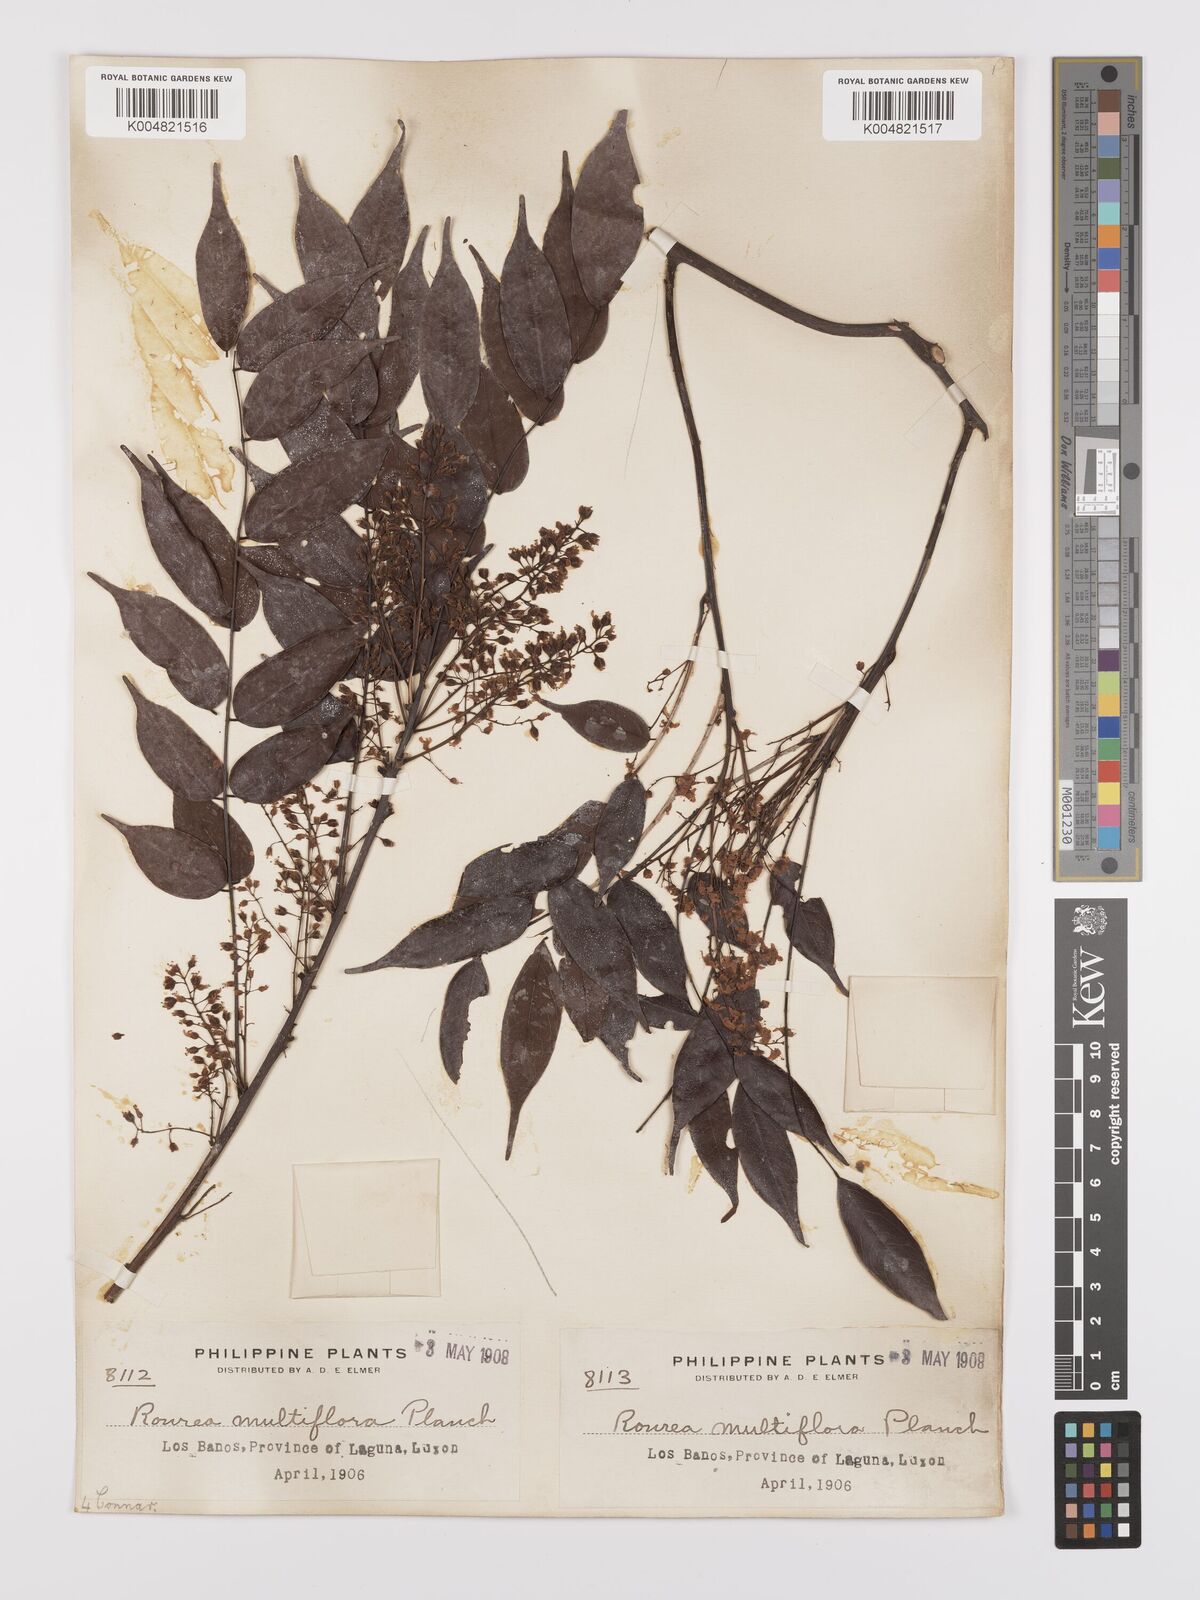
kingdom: Plantae
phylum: Tracheophyta
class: Magnoliopsida
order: Oxalidales
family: Connaraceae
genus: Rourea
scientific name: Rourea minor
